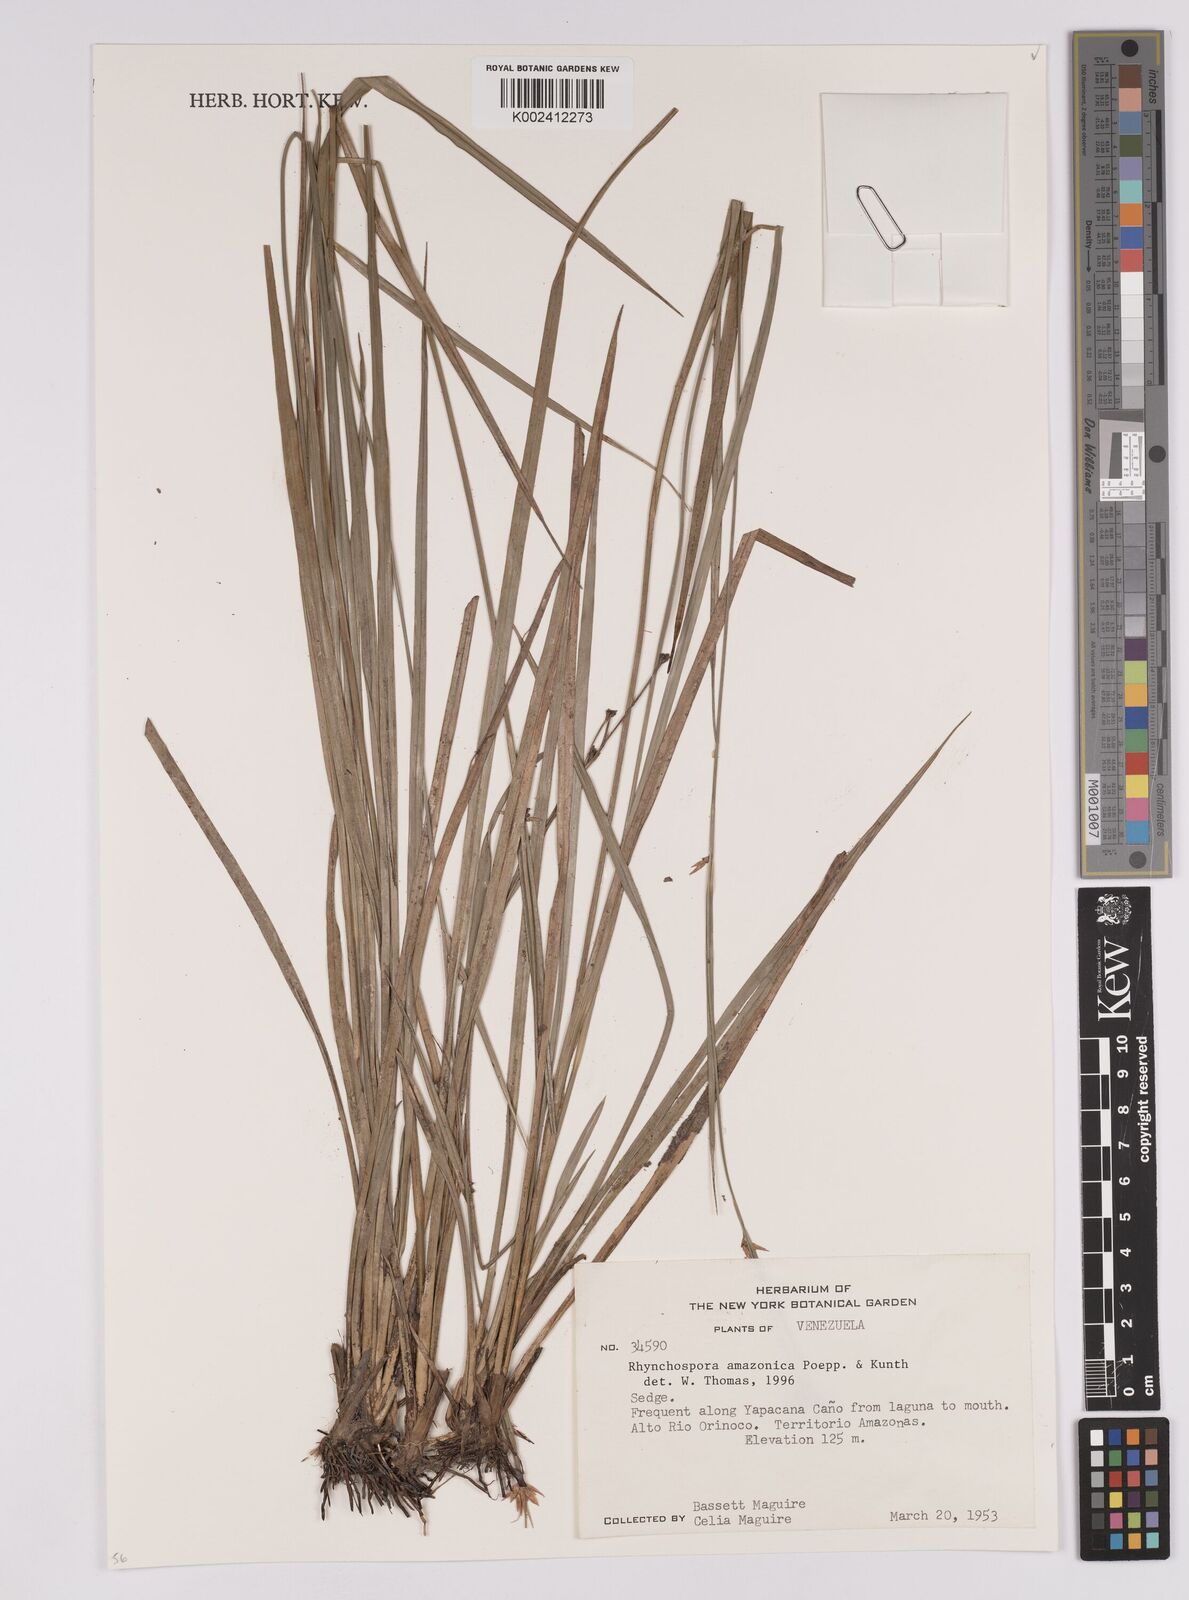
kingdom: Plantae
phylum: Tracheophyta
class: Liliopsida
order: Poales
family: Cyperaceae
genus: Rhynchospora
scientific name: Rhynchospora amazonica
